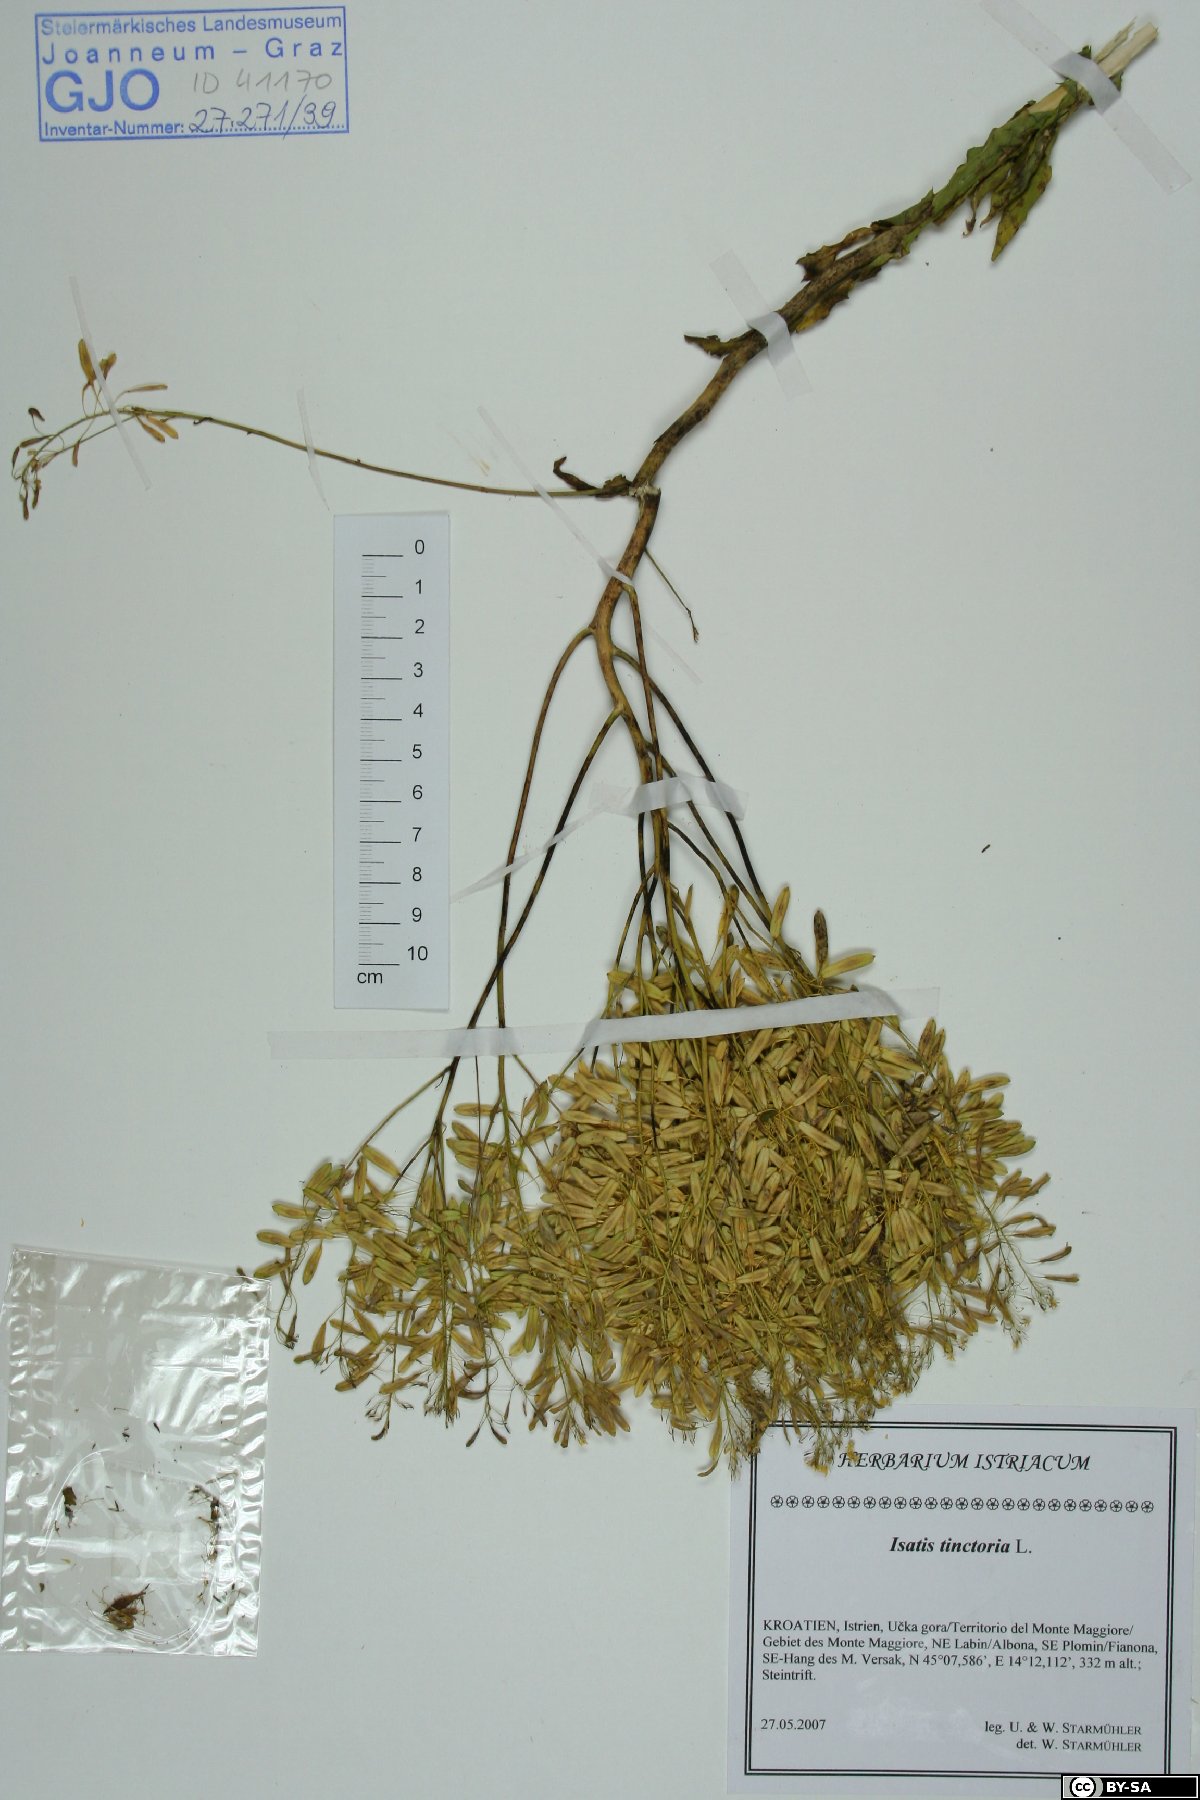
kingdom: Plantae
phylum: Tracheophyta
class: Magnoliopsida
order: Brassicales
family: Brassicaceae
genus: Isatis
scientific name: Isatis tinctoria
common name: Woad
